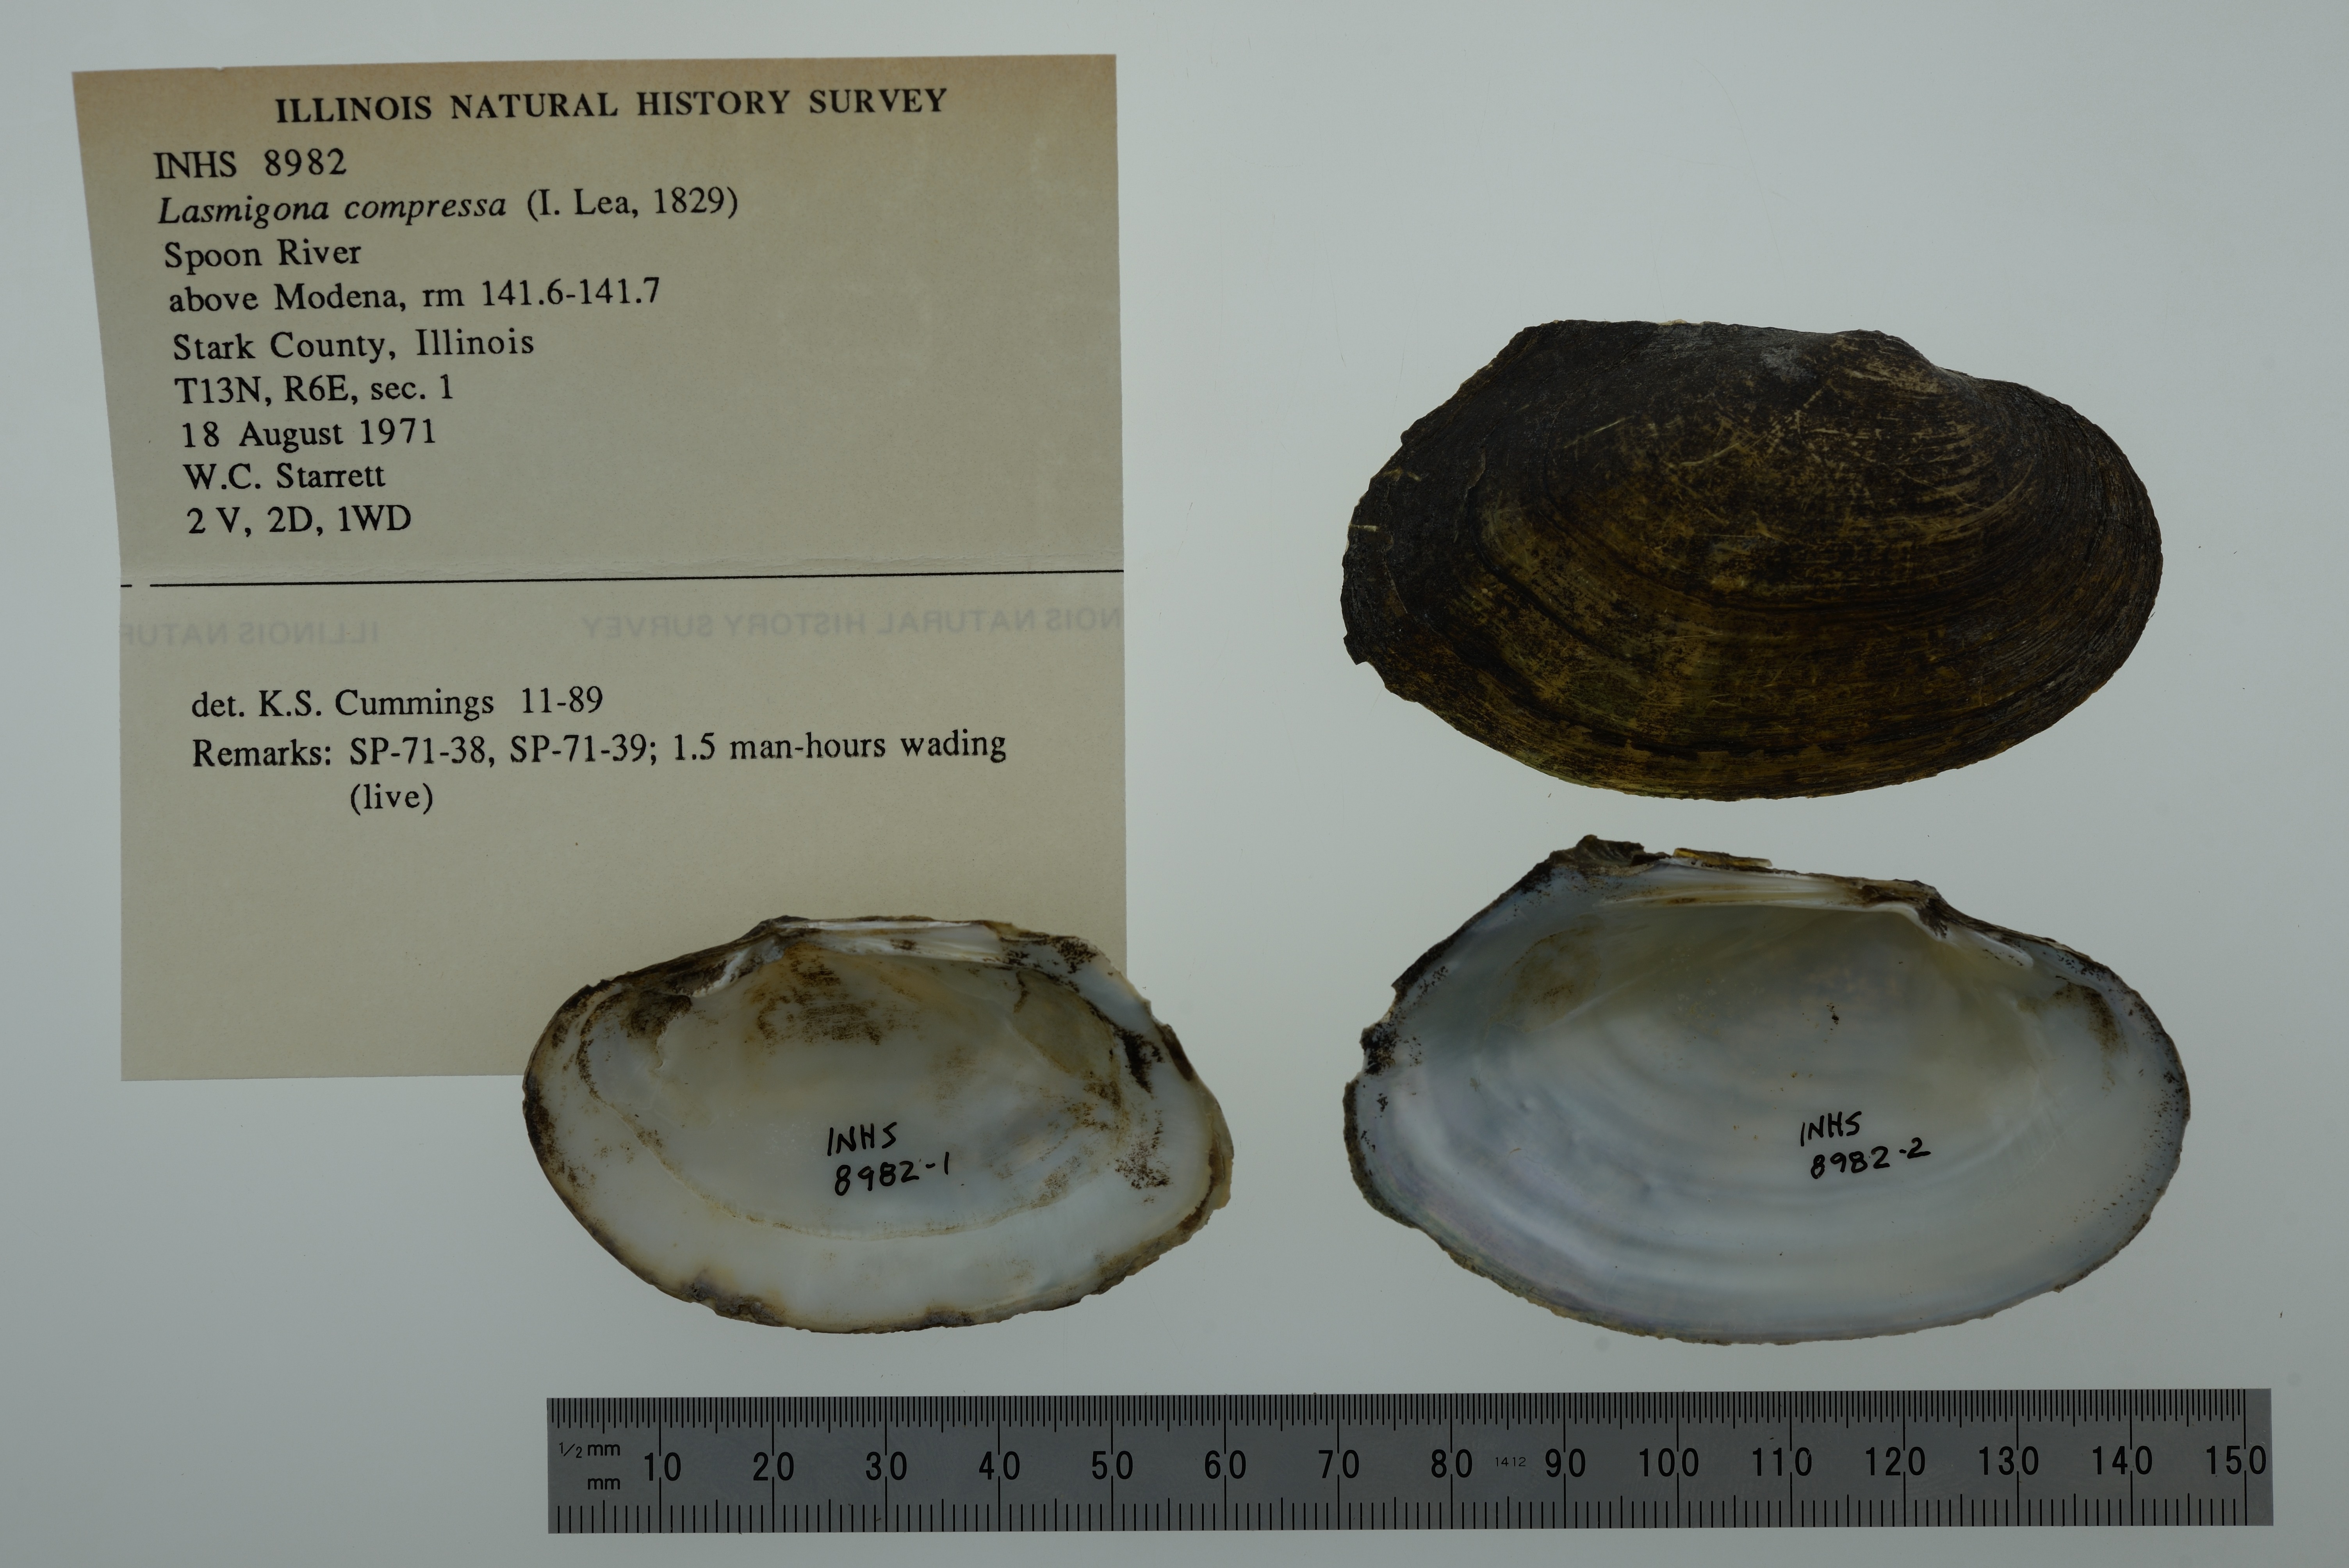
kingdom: Animalia
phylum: Mollusca
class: Bivalvia
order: Unionida
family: Unionidae
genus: Lasmigona
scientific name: Lasmigona compressa
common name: Creek heelsplitter
